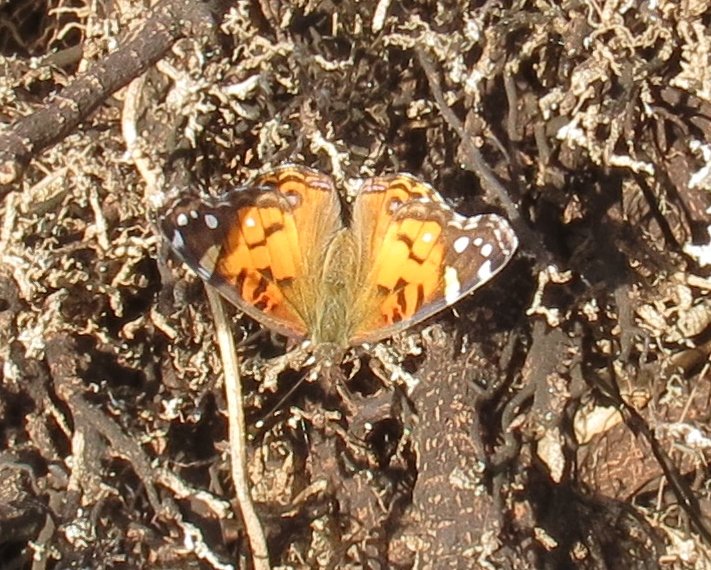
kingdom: Animalia
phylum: Arthropoda
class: Insecta
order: Lepidoptera
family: Nymphalidae
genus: Vanessa
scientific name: Vanessa virginiensis
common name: American Lady
